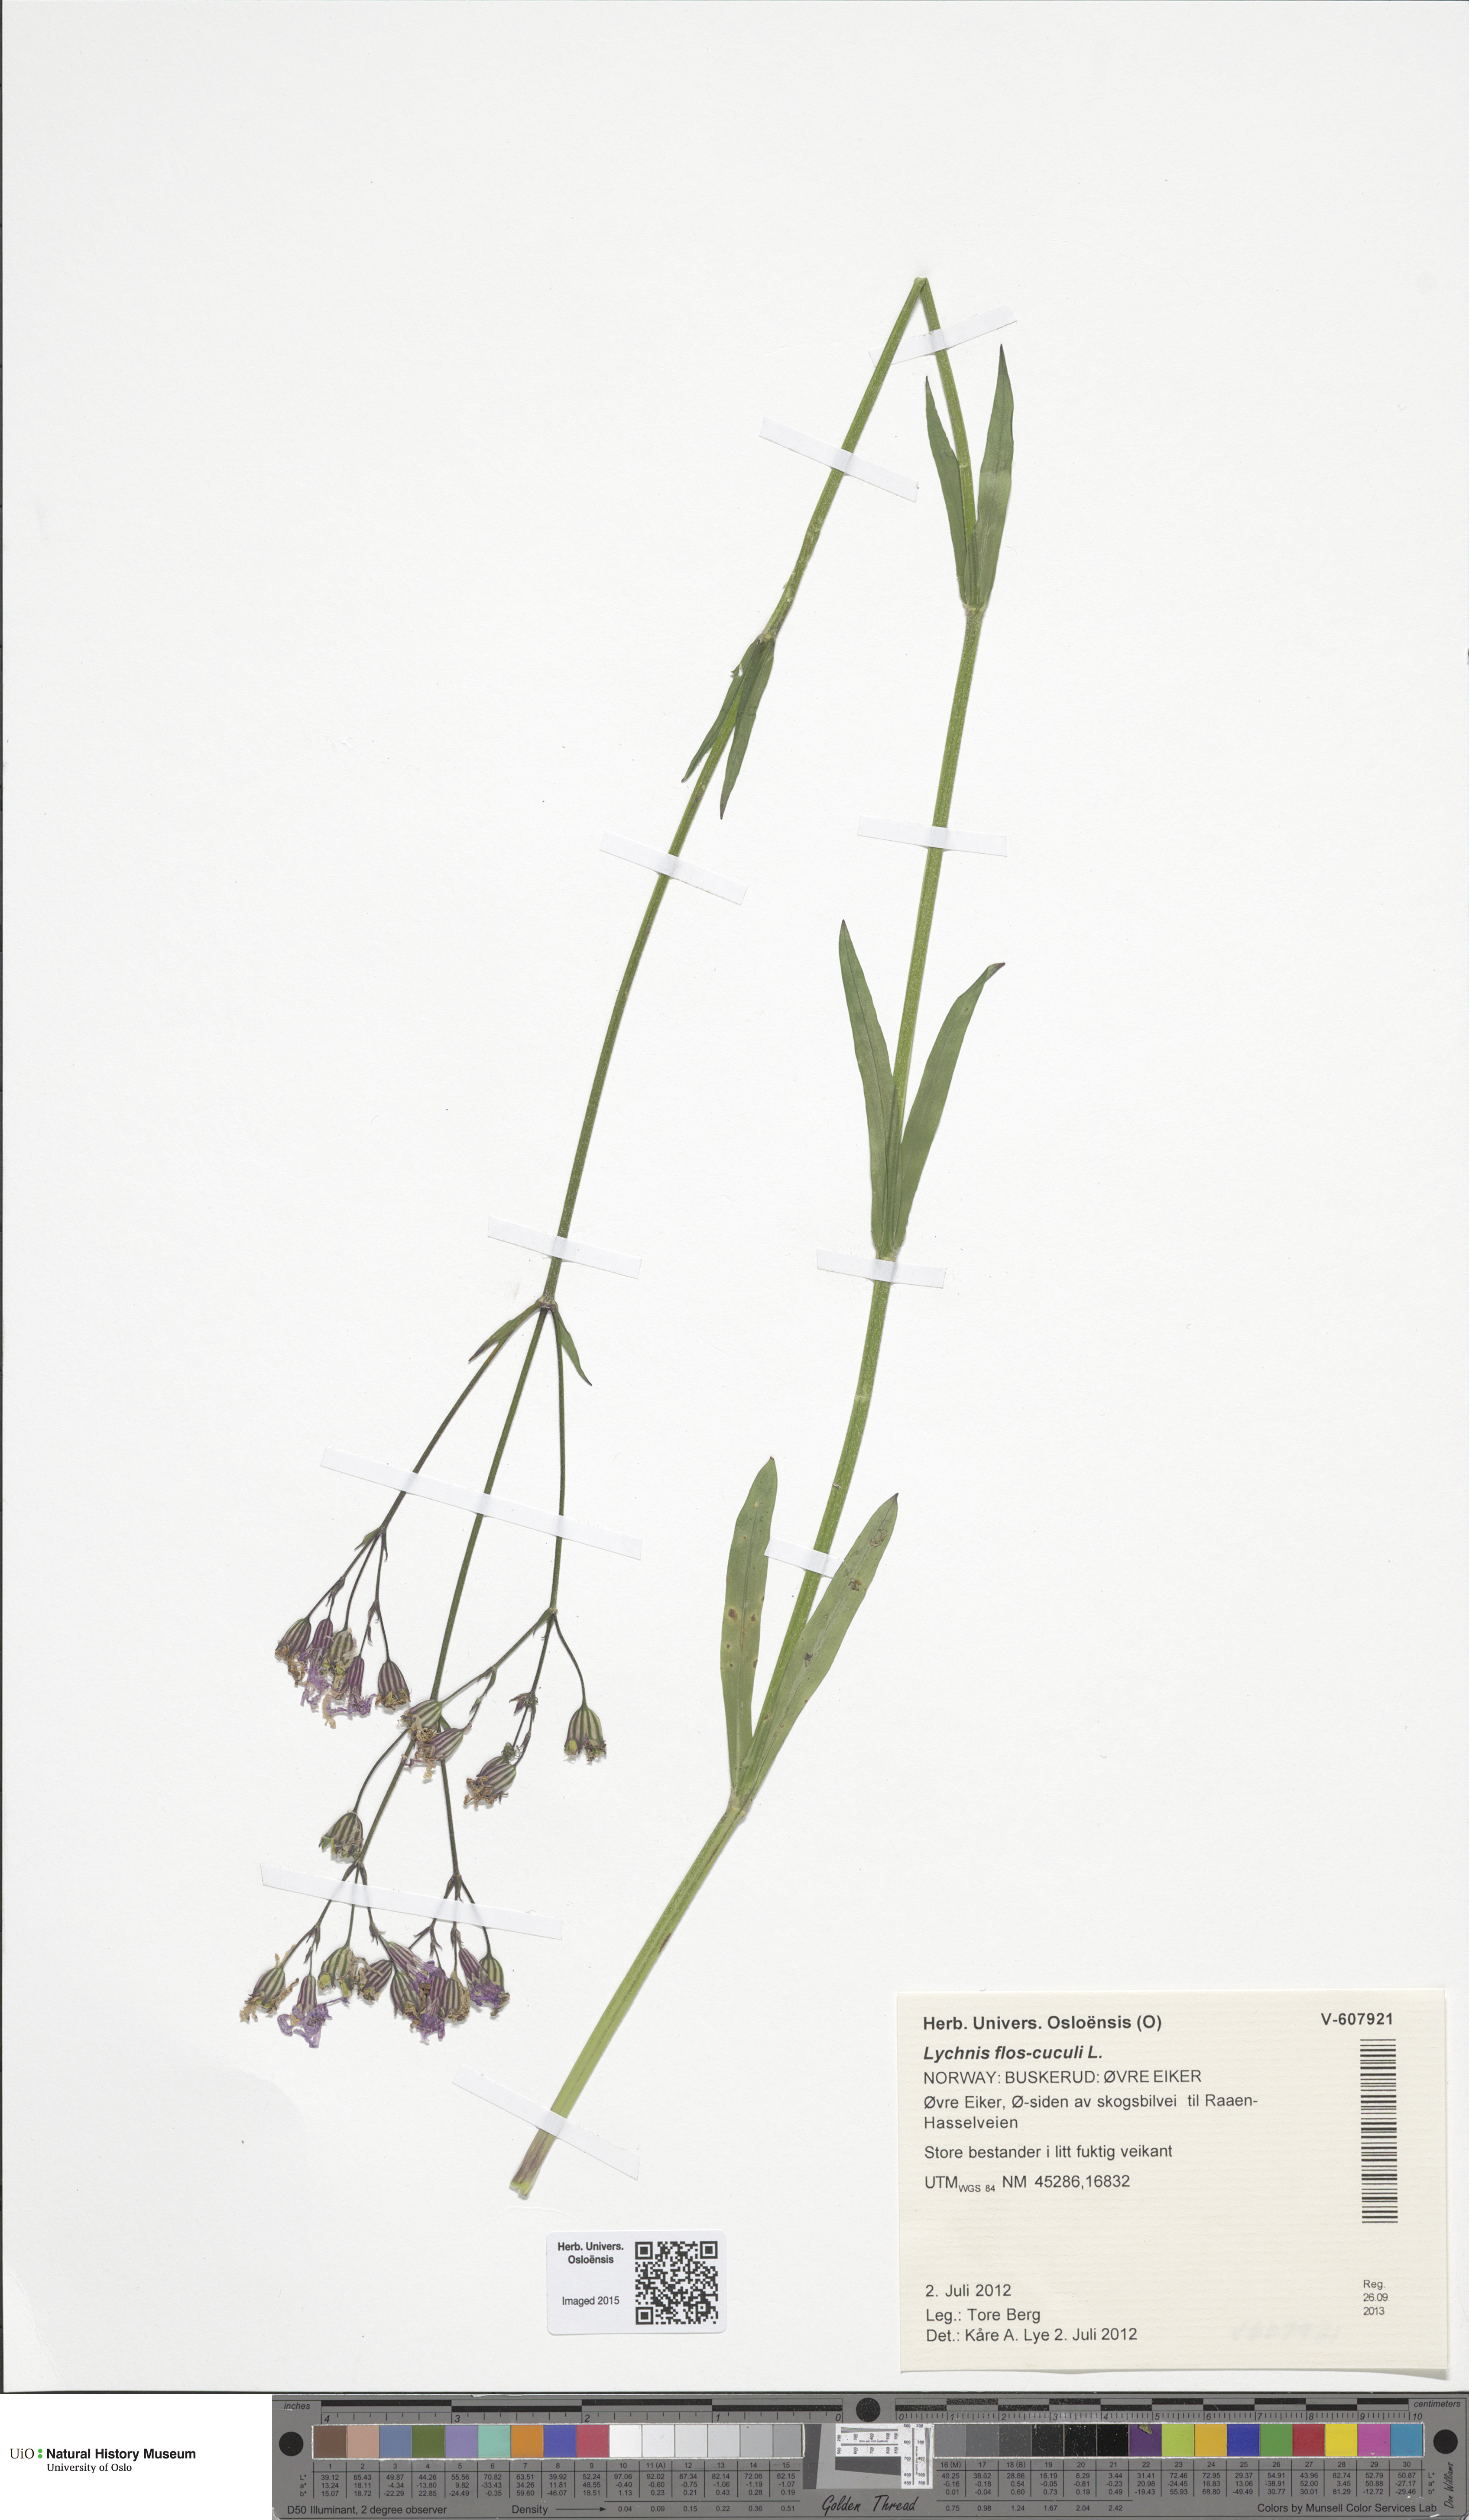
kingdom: Plantae
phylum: Tracheophyta
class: Magnoliopsida
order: Caryophyllales
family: Caryophyllaceae
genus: Silene
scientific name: Silene flos-cuculi
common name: Ragged-robin
